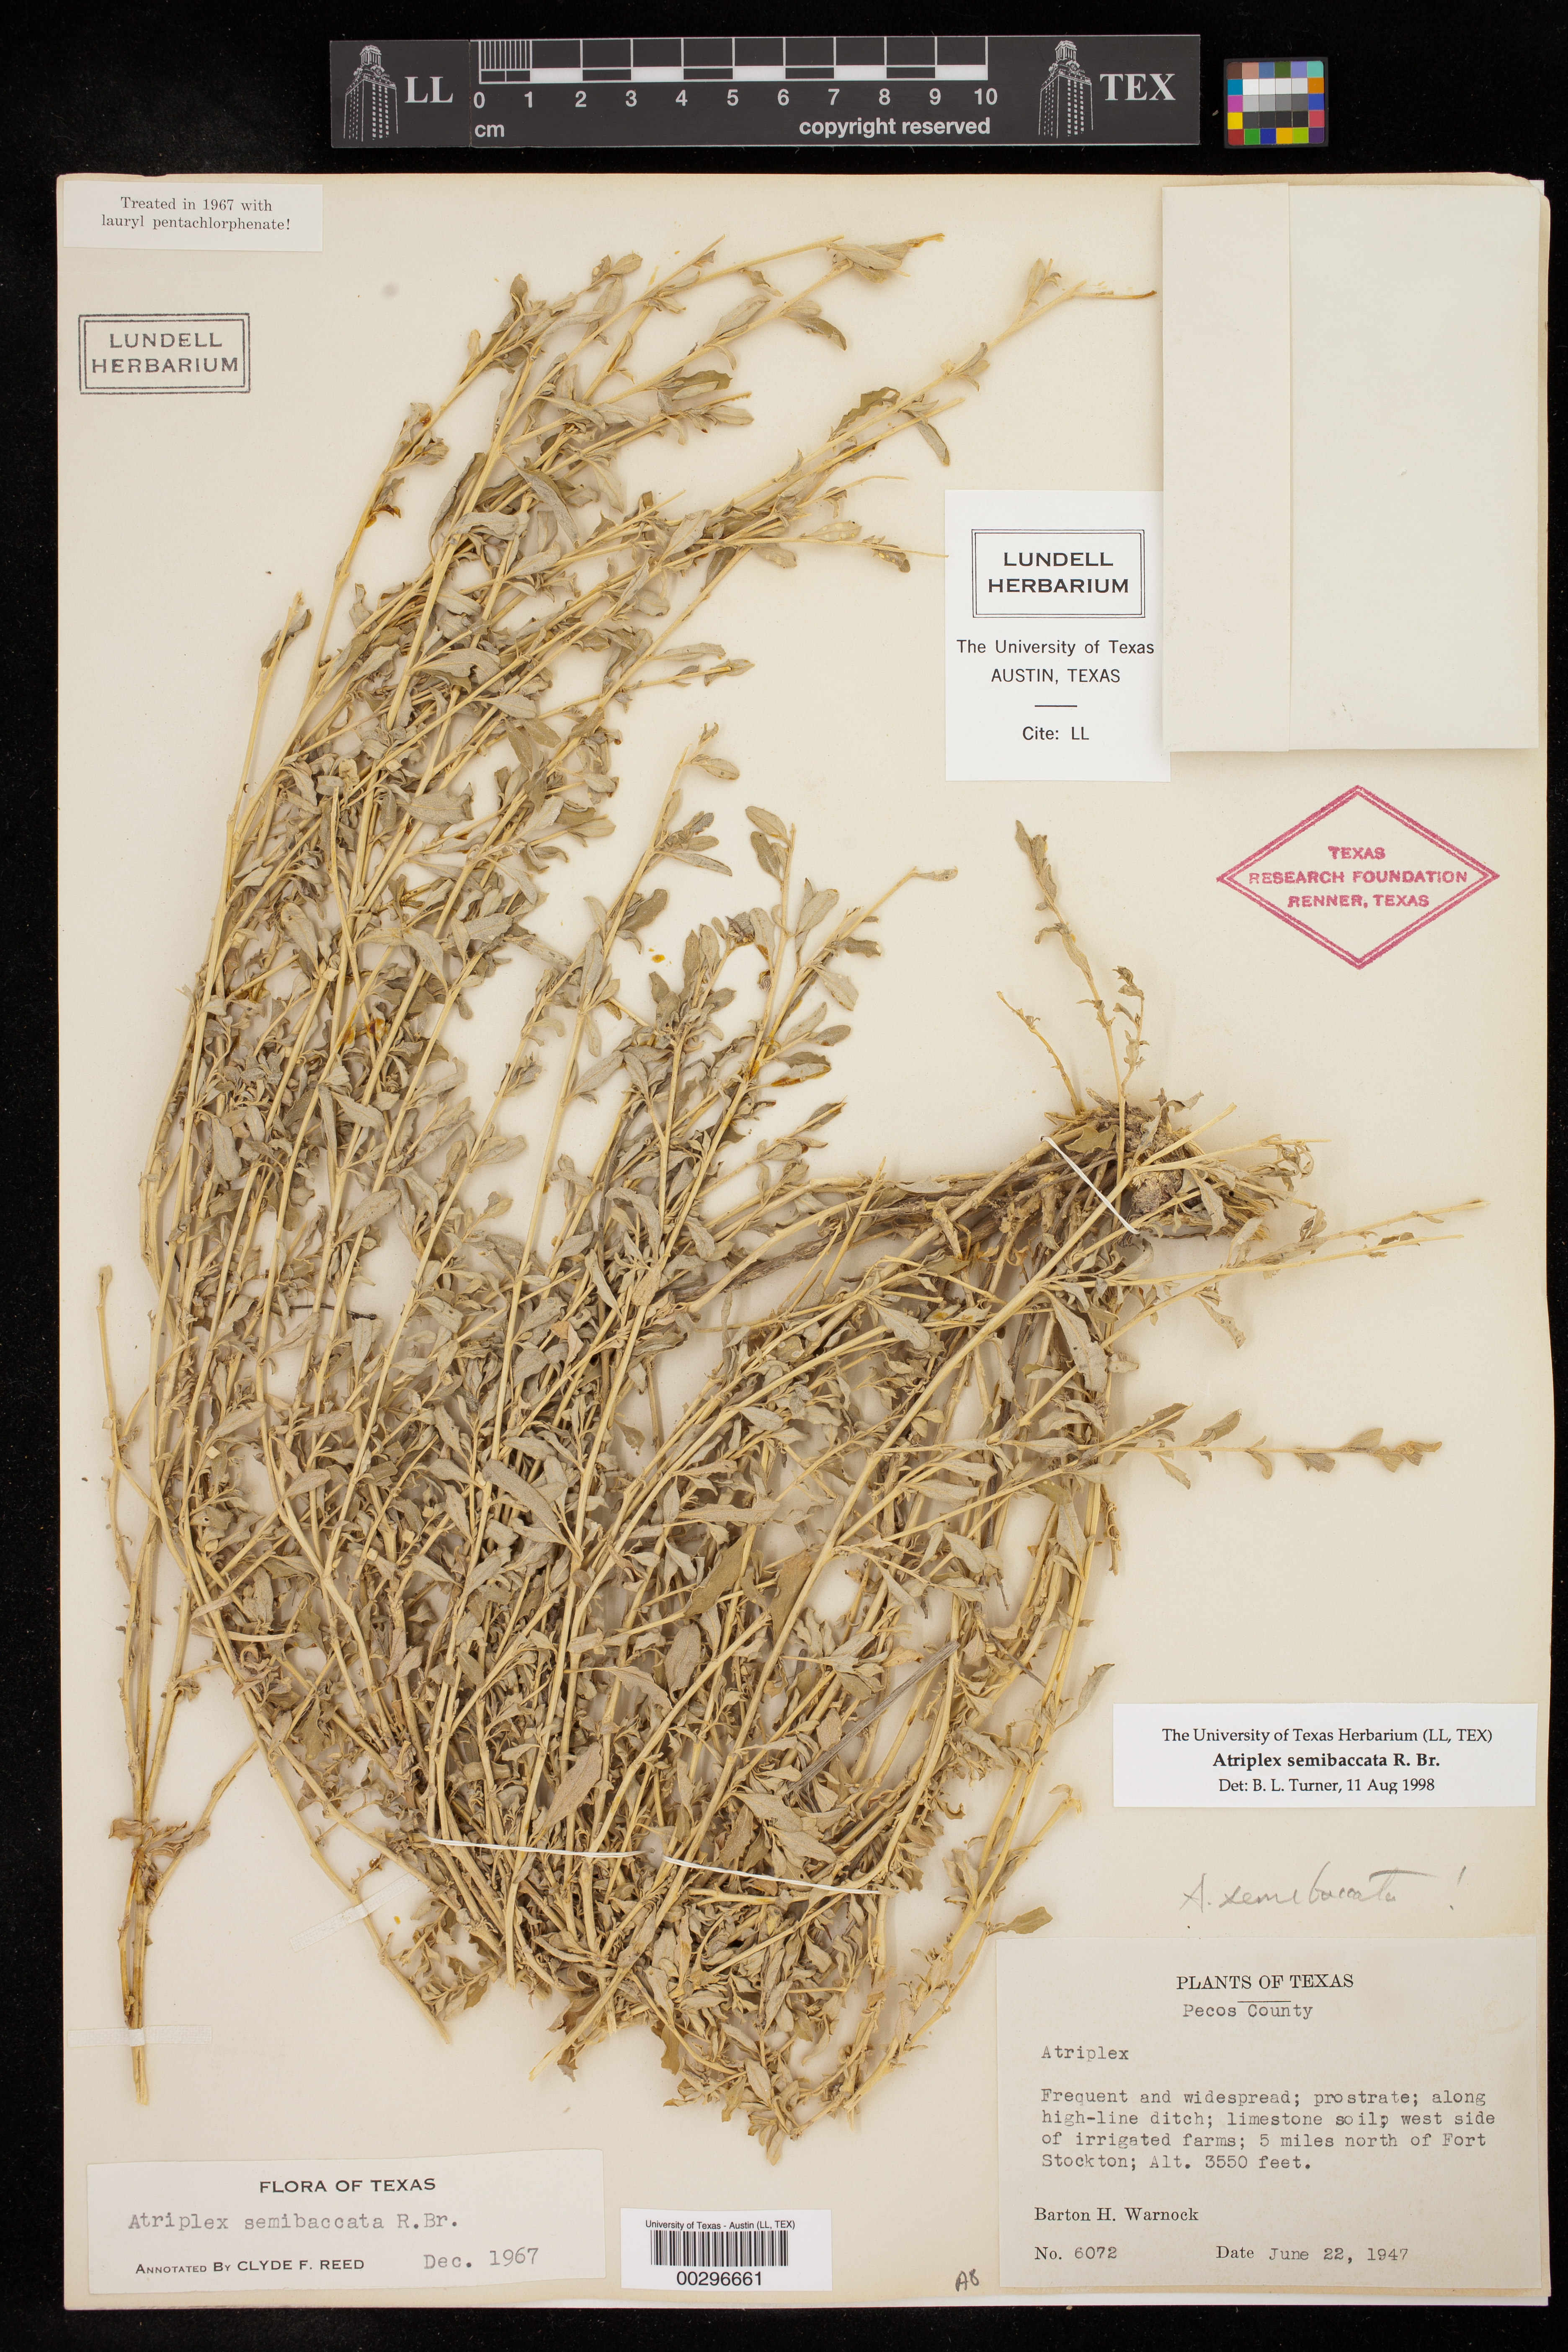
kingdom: Plantae
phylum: Tracheophyta
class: Magnoliopsida
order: Caryophyllales
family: Amaranthaceae
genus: Atriplex
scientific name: Atriplex semibaccata
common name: Australian saltbush
